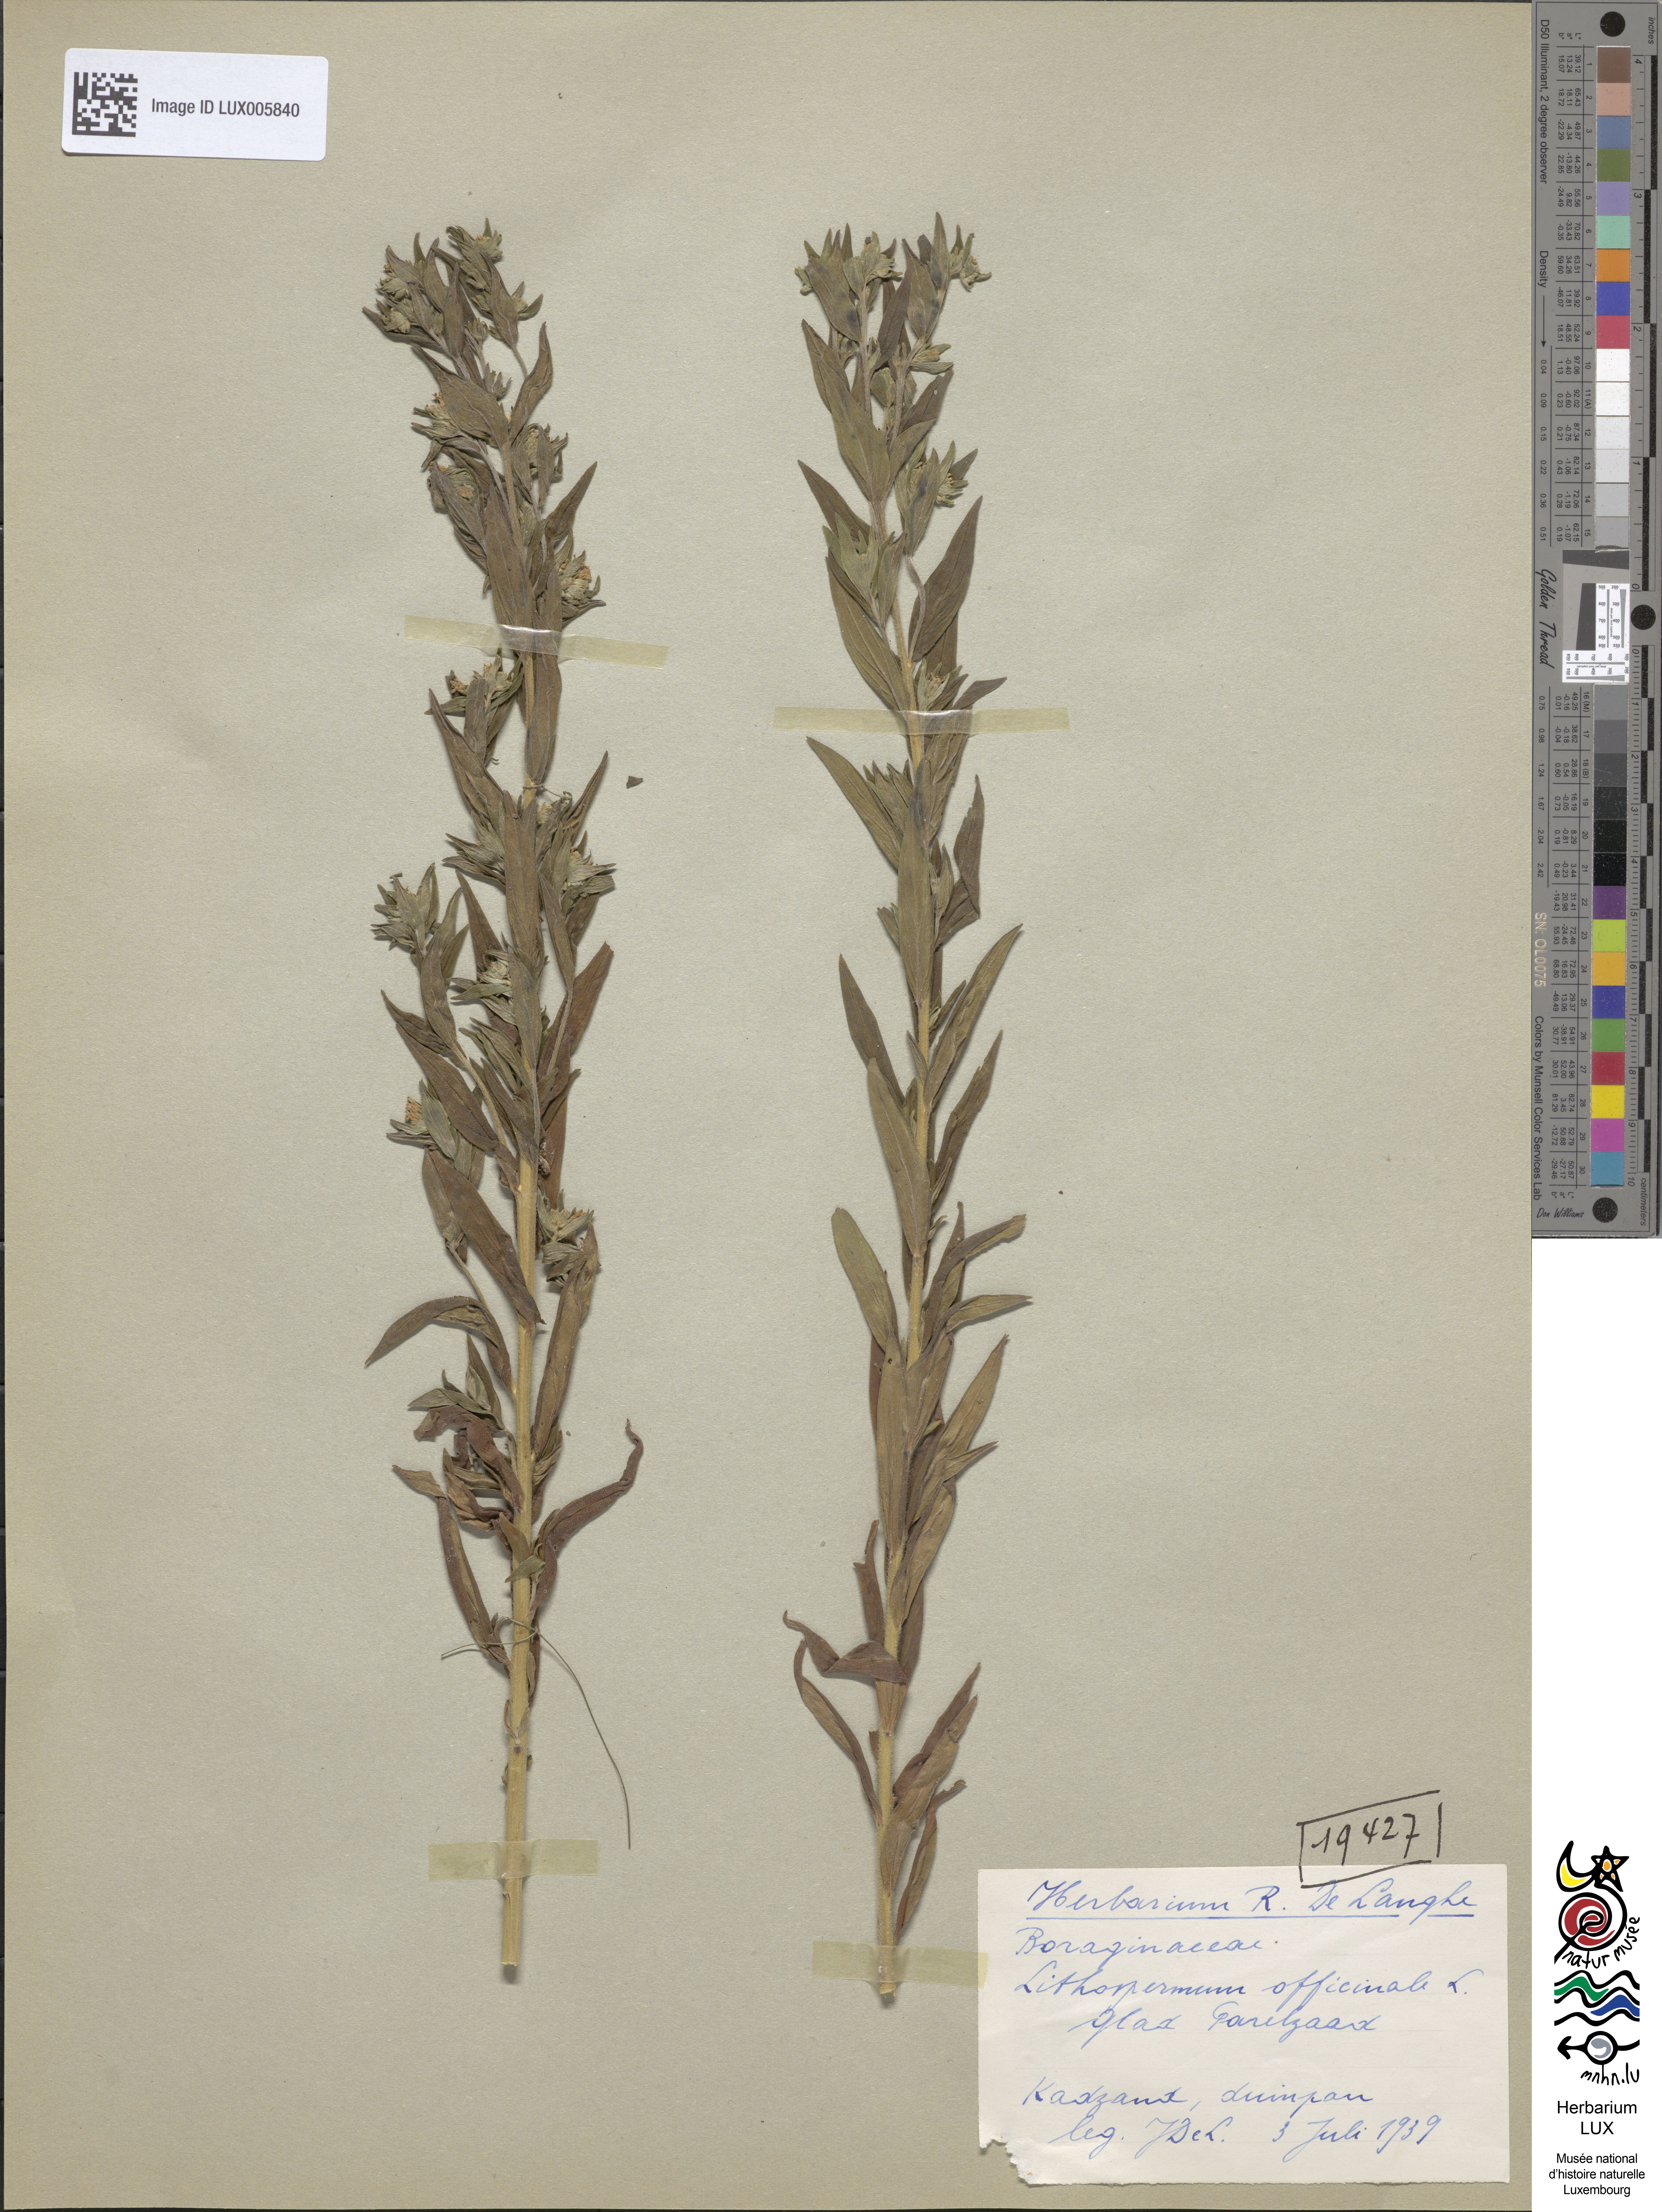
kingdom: Plantae
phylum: Tracheophyta
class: Magnoliopsida
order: Boraginales
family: Boraginaceae
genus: Lithospermum
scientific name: Lithospermum officinale
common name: Common gromwell
